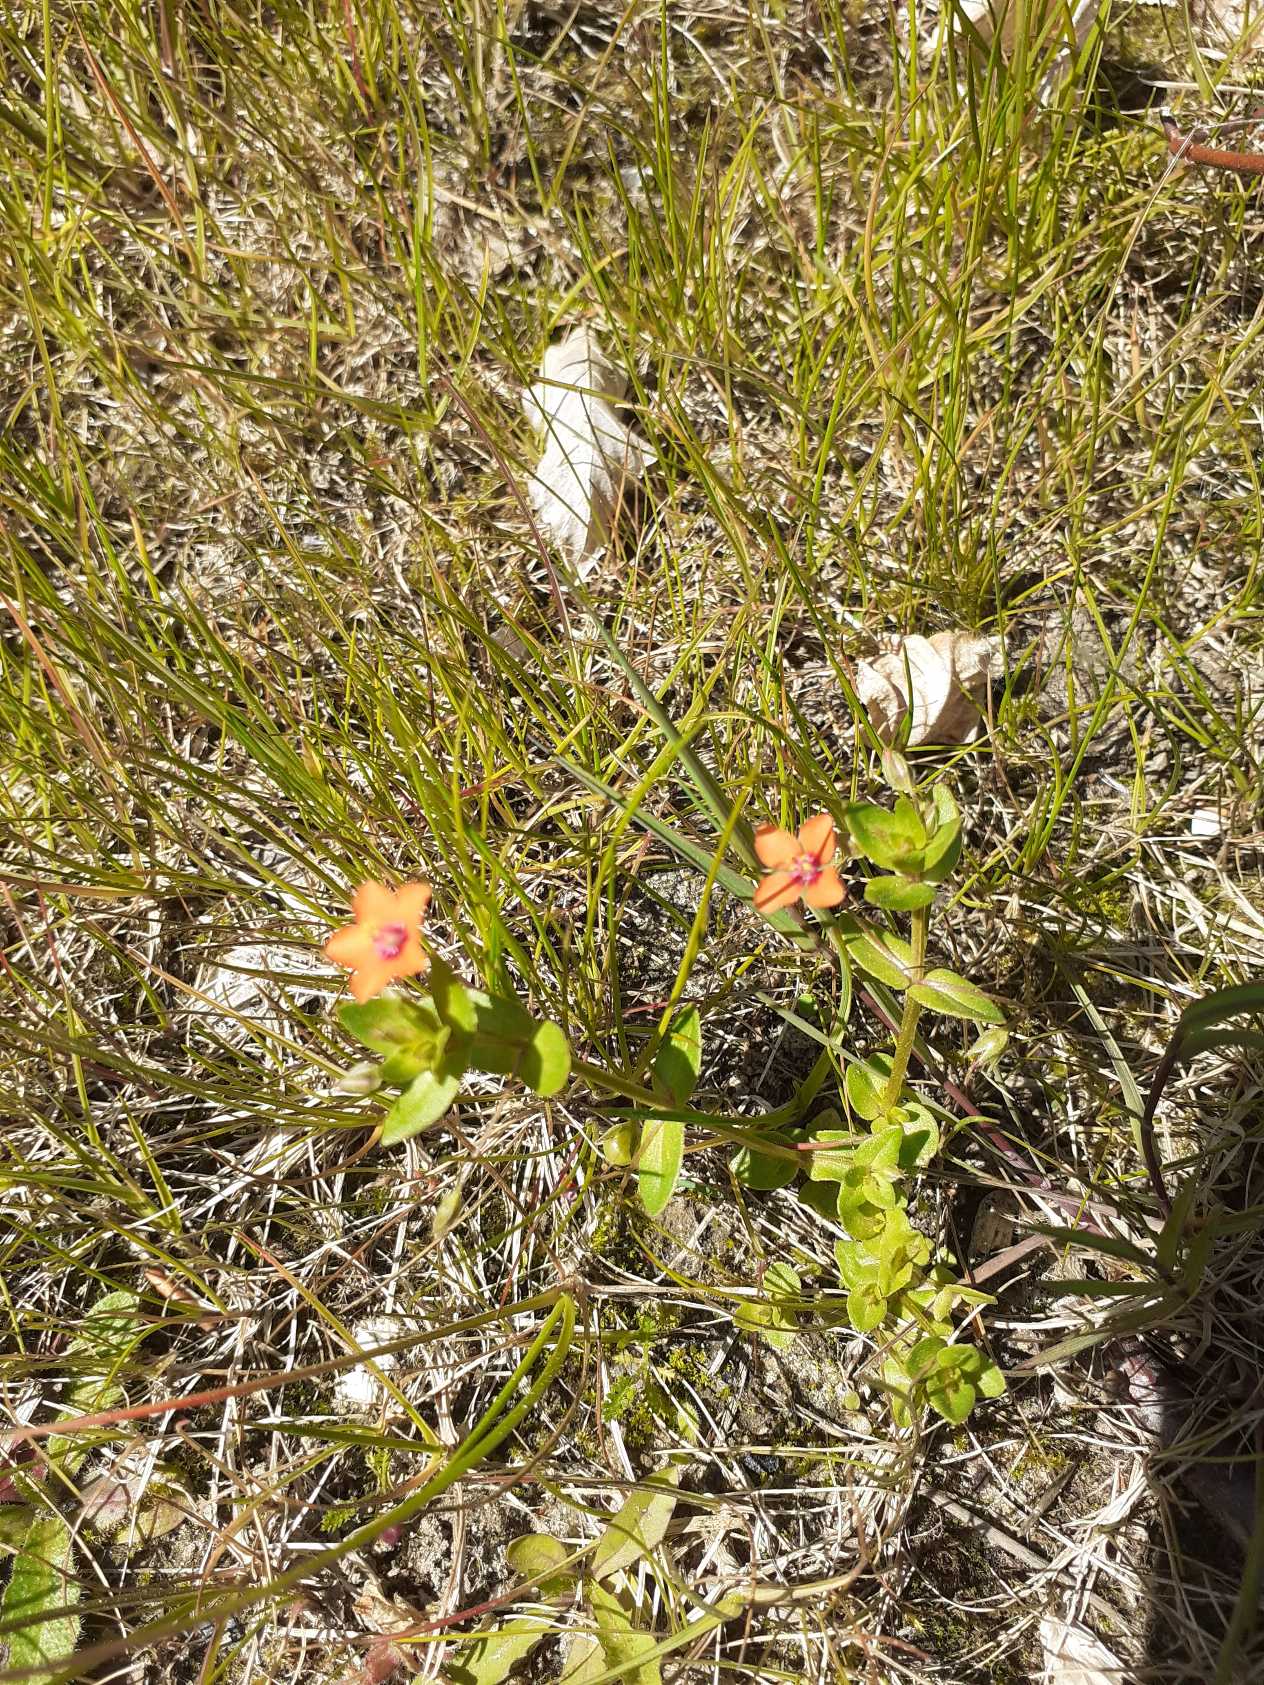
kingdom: Plantae
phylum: Tracheophyta
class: Magnoliopsida
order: Ericales
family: Primulaceae
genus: Lysimachia
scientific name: Lysimachia arvensis
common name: Rød arve
